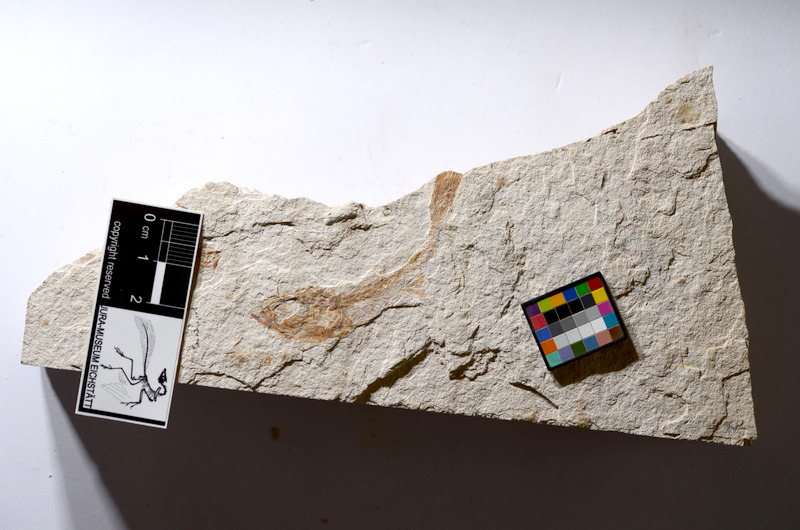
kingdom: Animalia
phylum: Chordata
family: Ascalaboidae
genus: Tharsis
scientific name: Tharsis dubius
